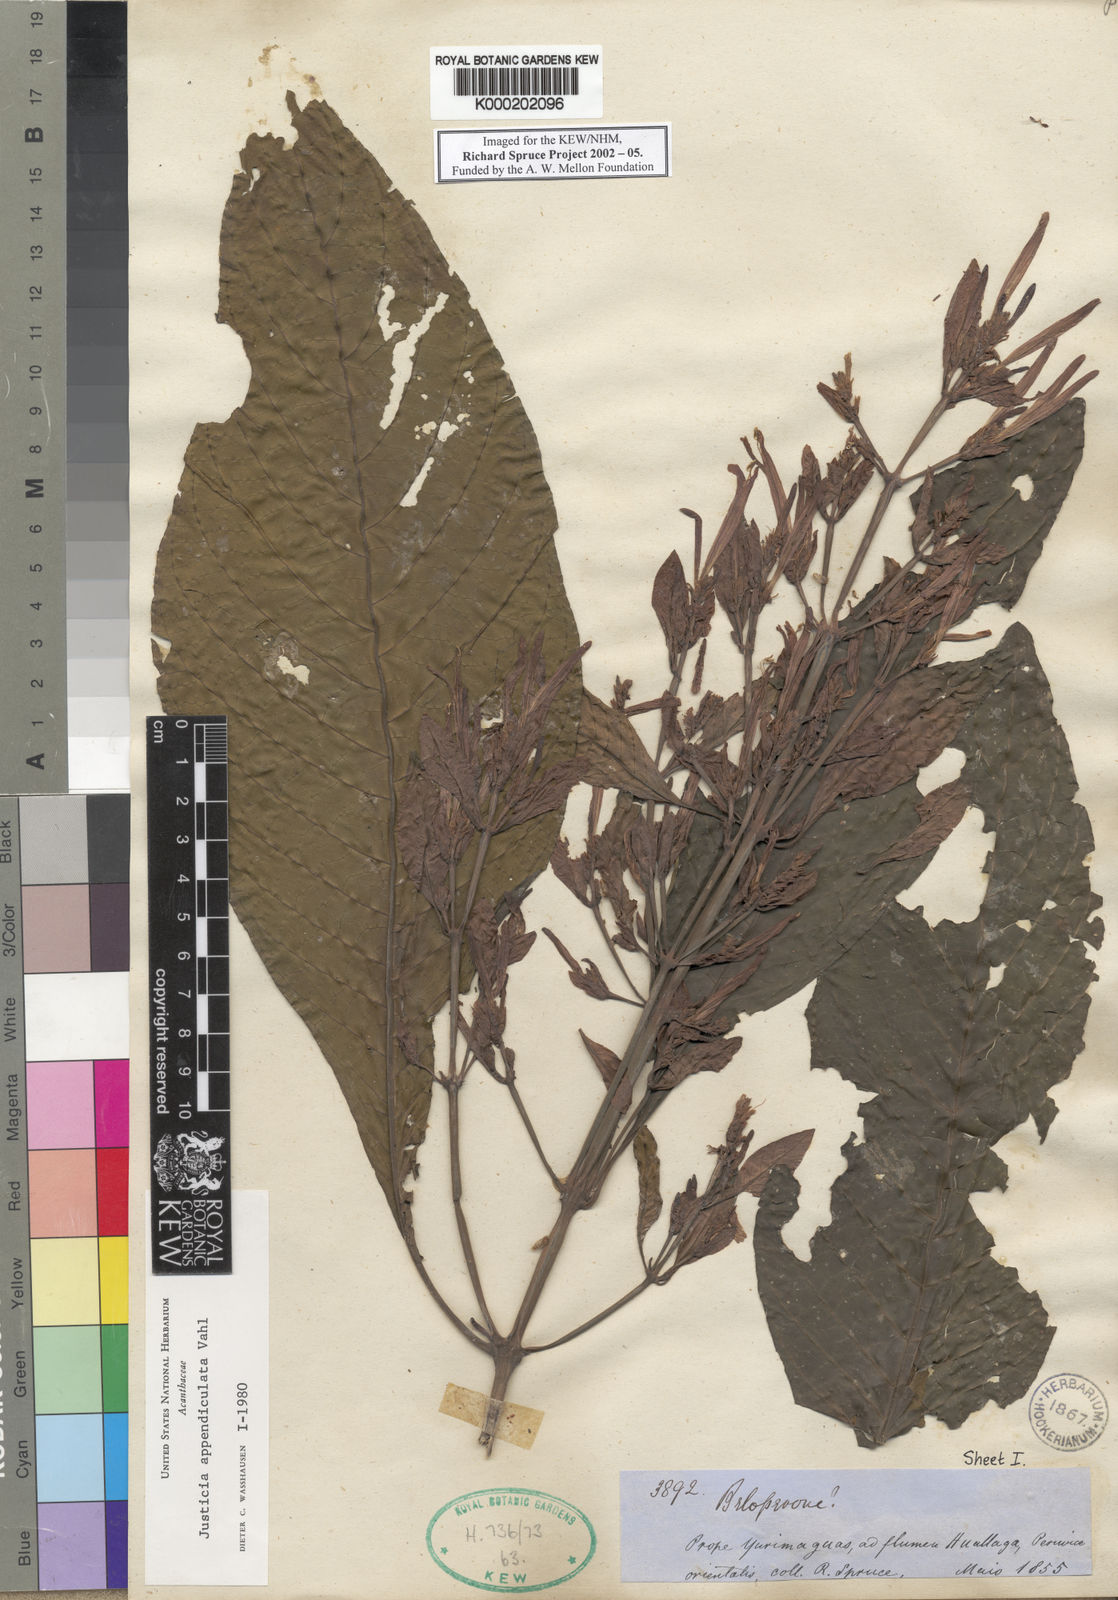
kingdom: Plantae
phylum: Tracheophyta
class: Magnoliopsida
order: Lamiales
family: Acanthaceae
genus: Dianthera
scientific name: Dianthera appendiculata
